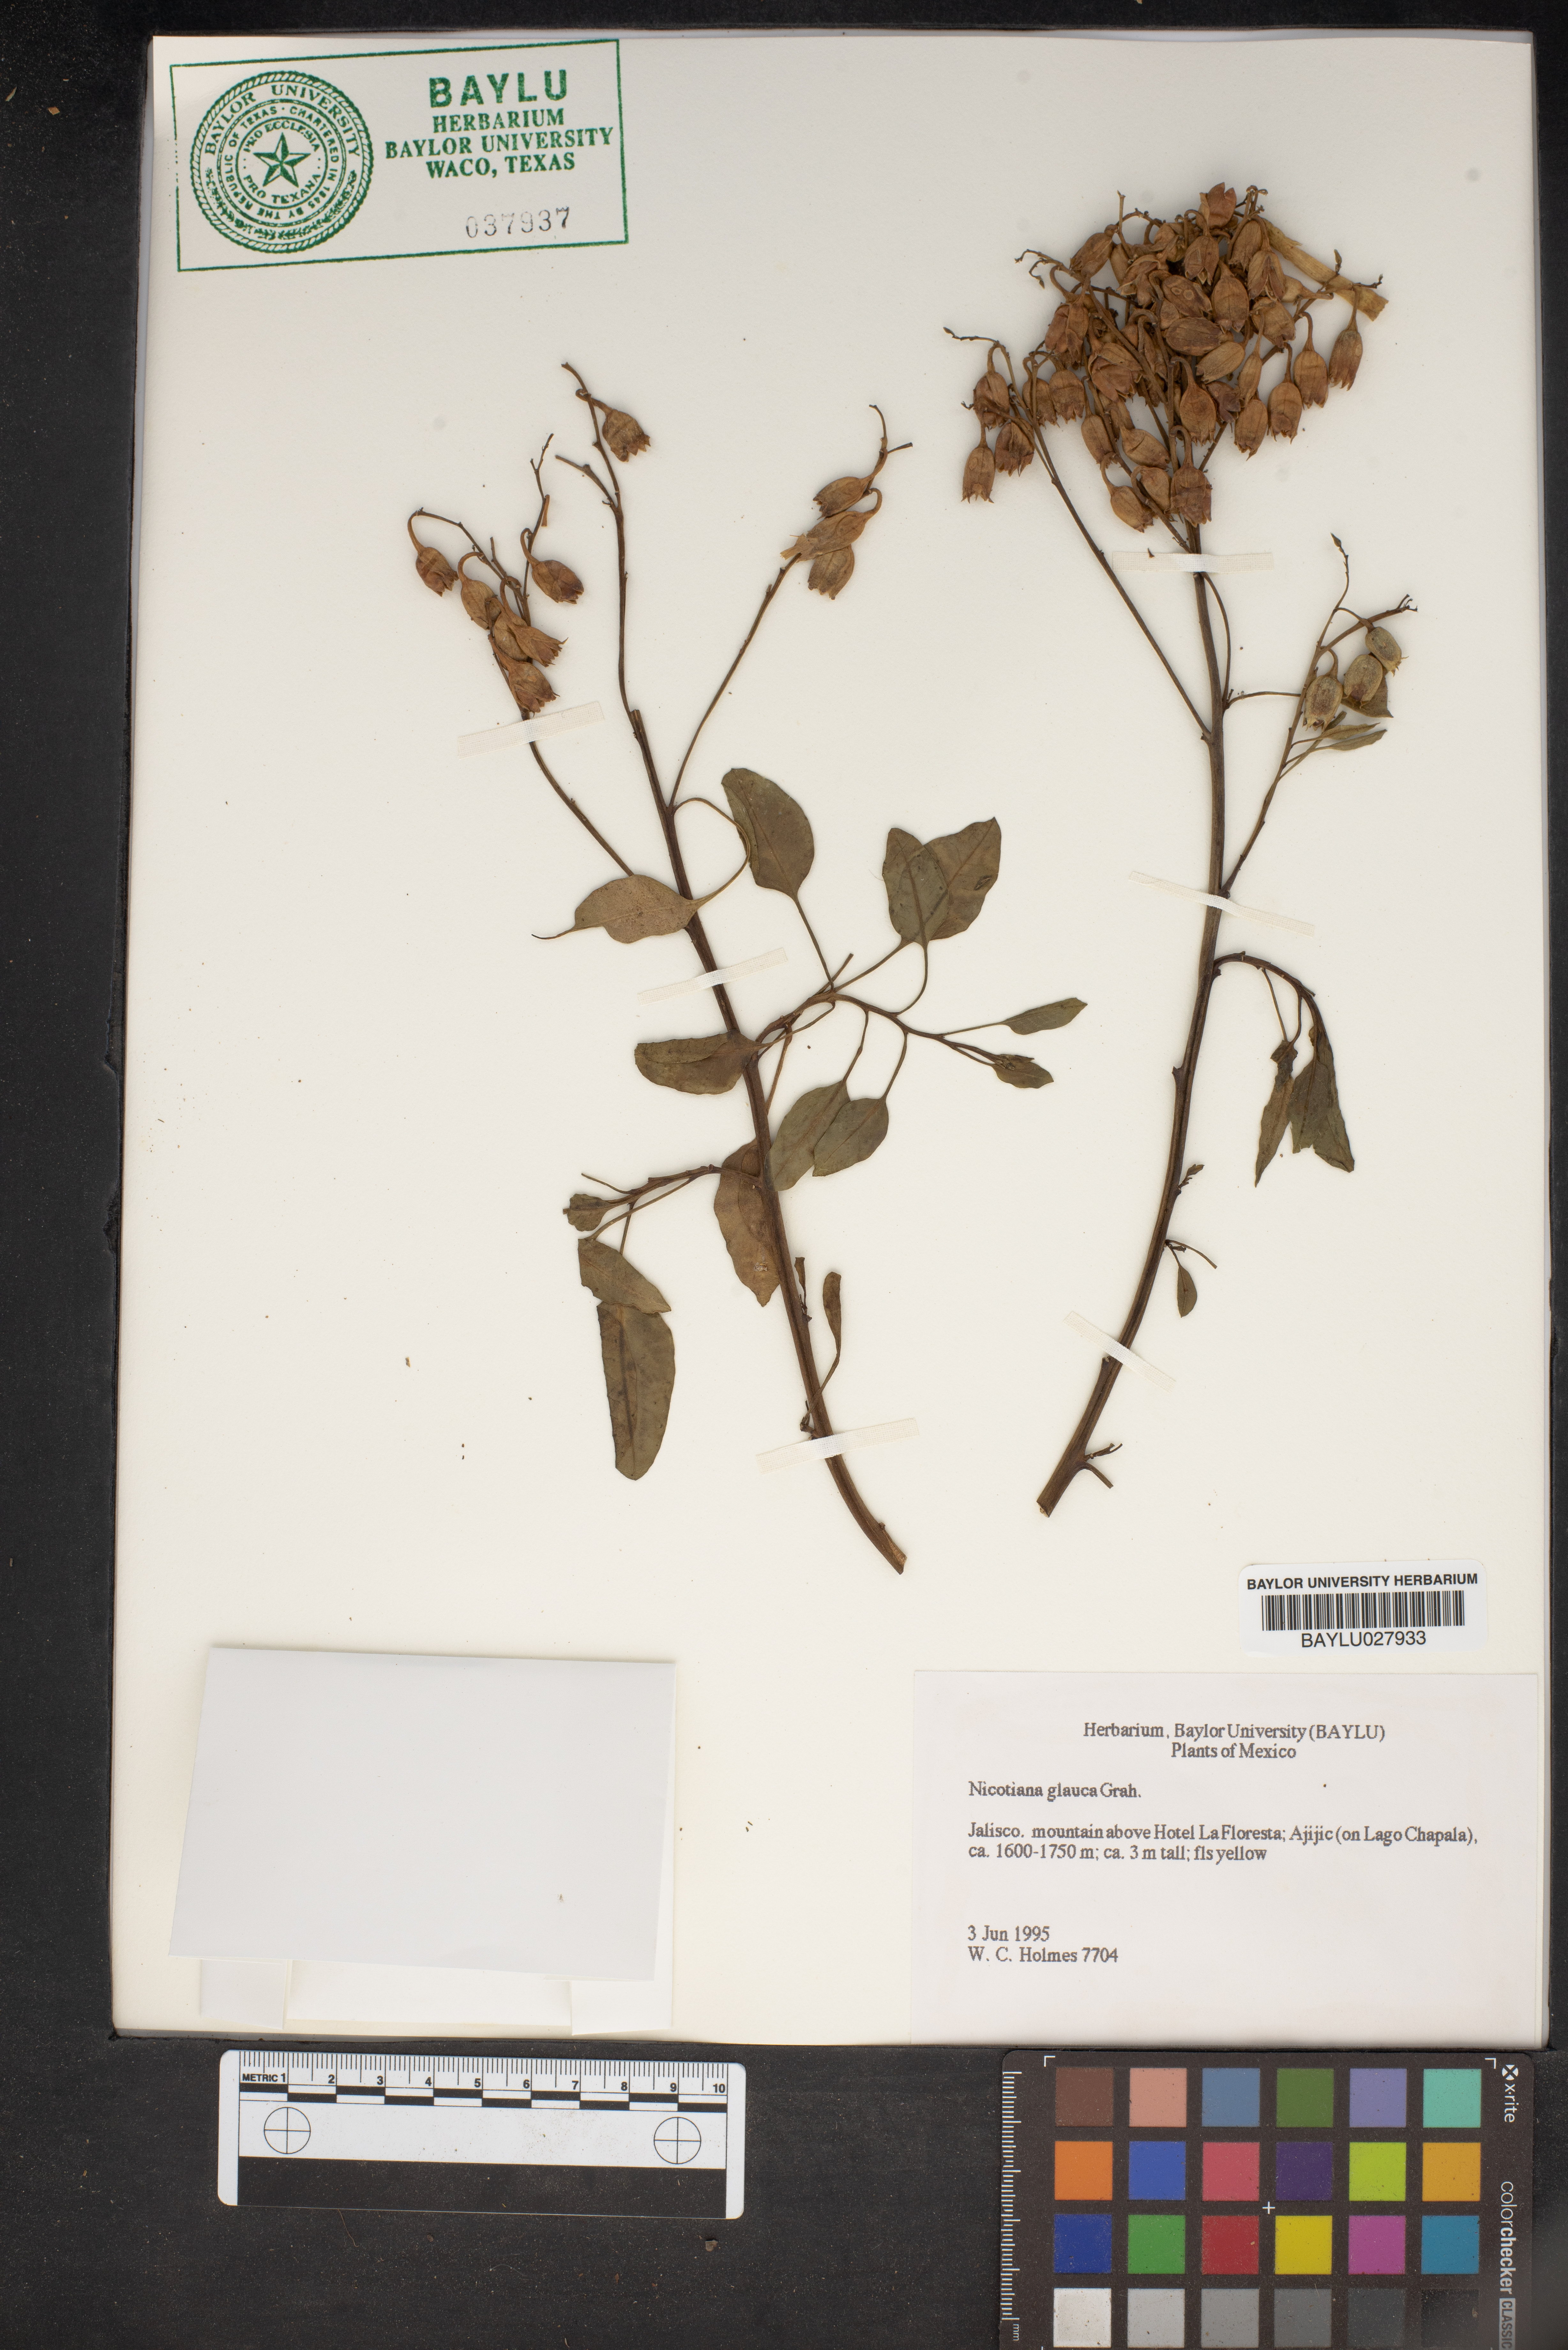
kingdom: Plantae
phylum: Tracheophyta
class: Magnoliopsida
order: Solanales
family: Solanaceae
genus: Nicotiana
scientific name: Nicotiana glauca
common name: Tree tobacco
